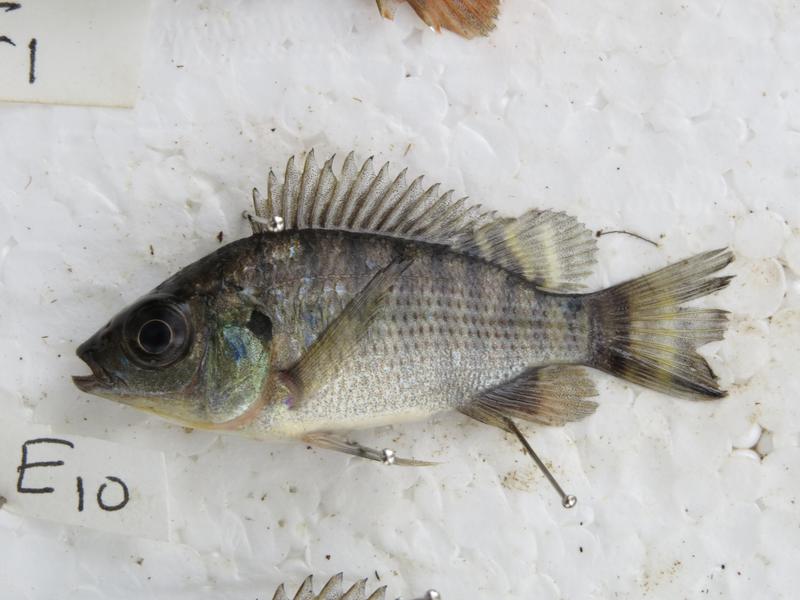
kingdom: Animalia
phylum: Chordata
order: Perciformes
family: Cichlidae
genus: Oreochromis
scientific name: Oreochromis niloticus
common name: Nile tilapia
